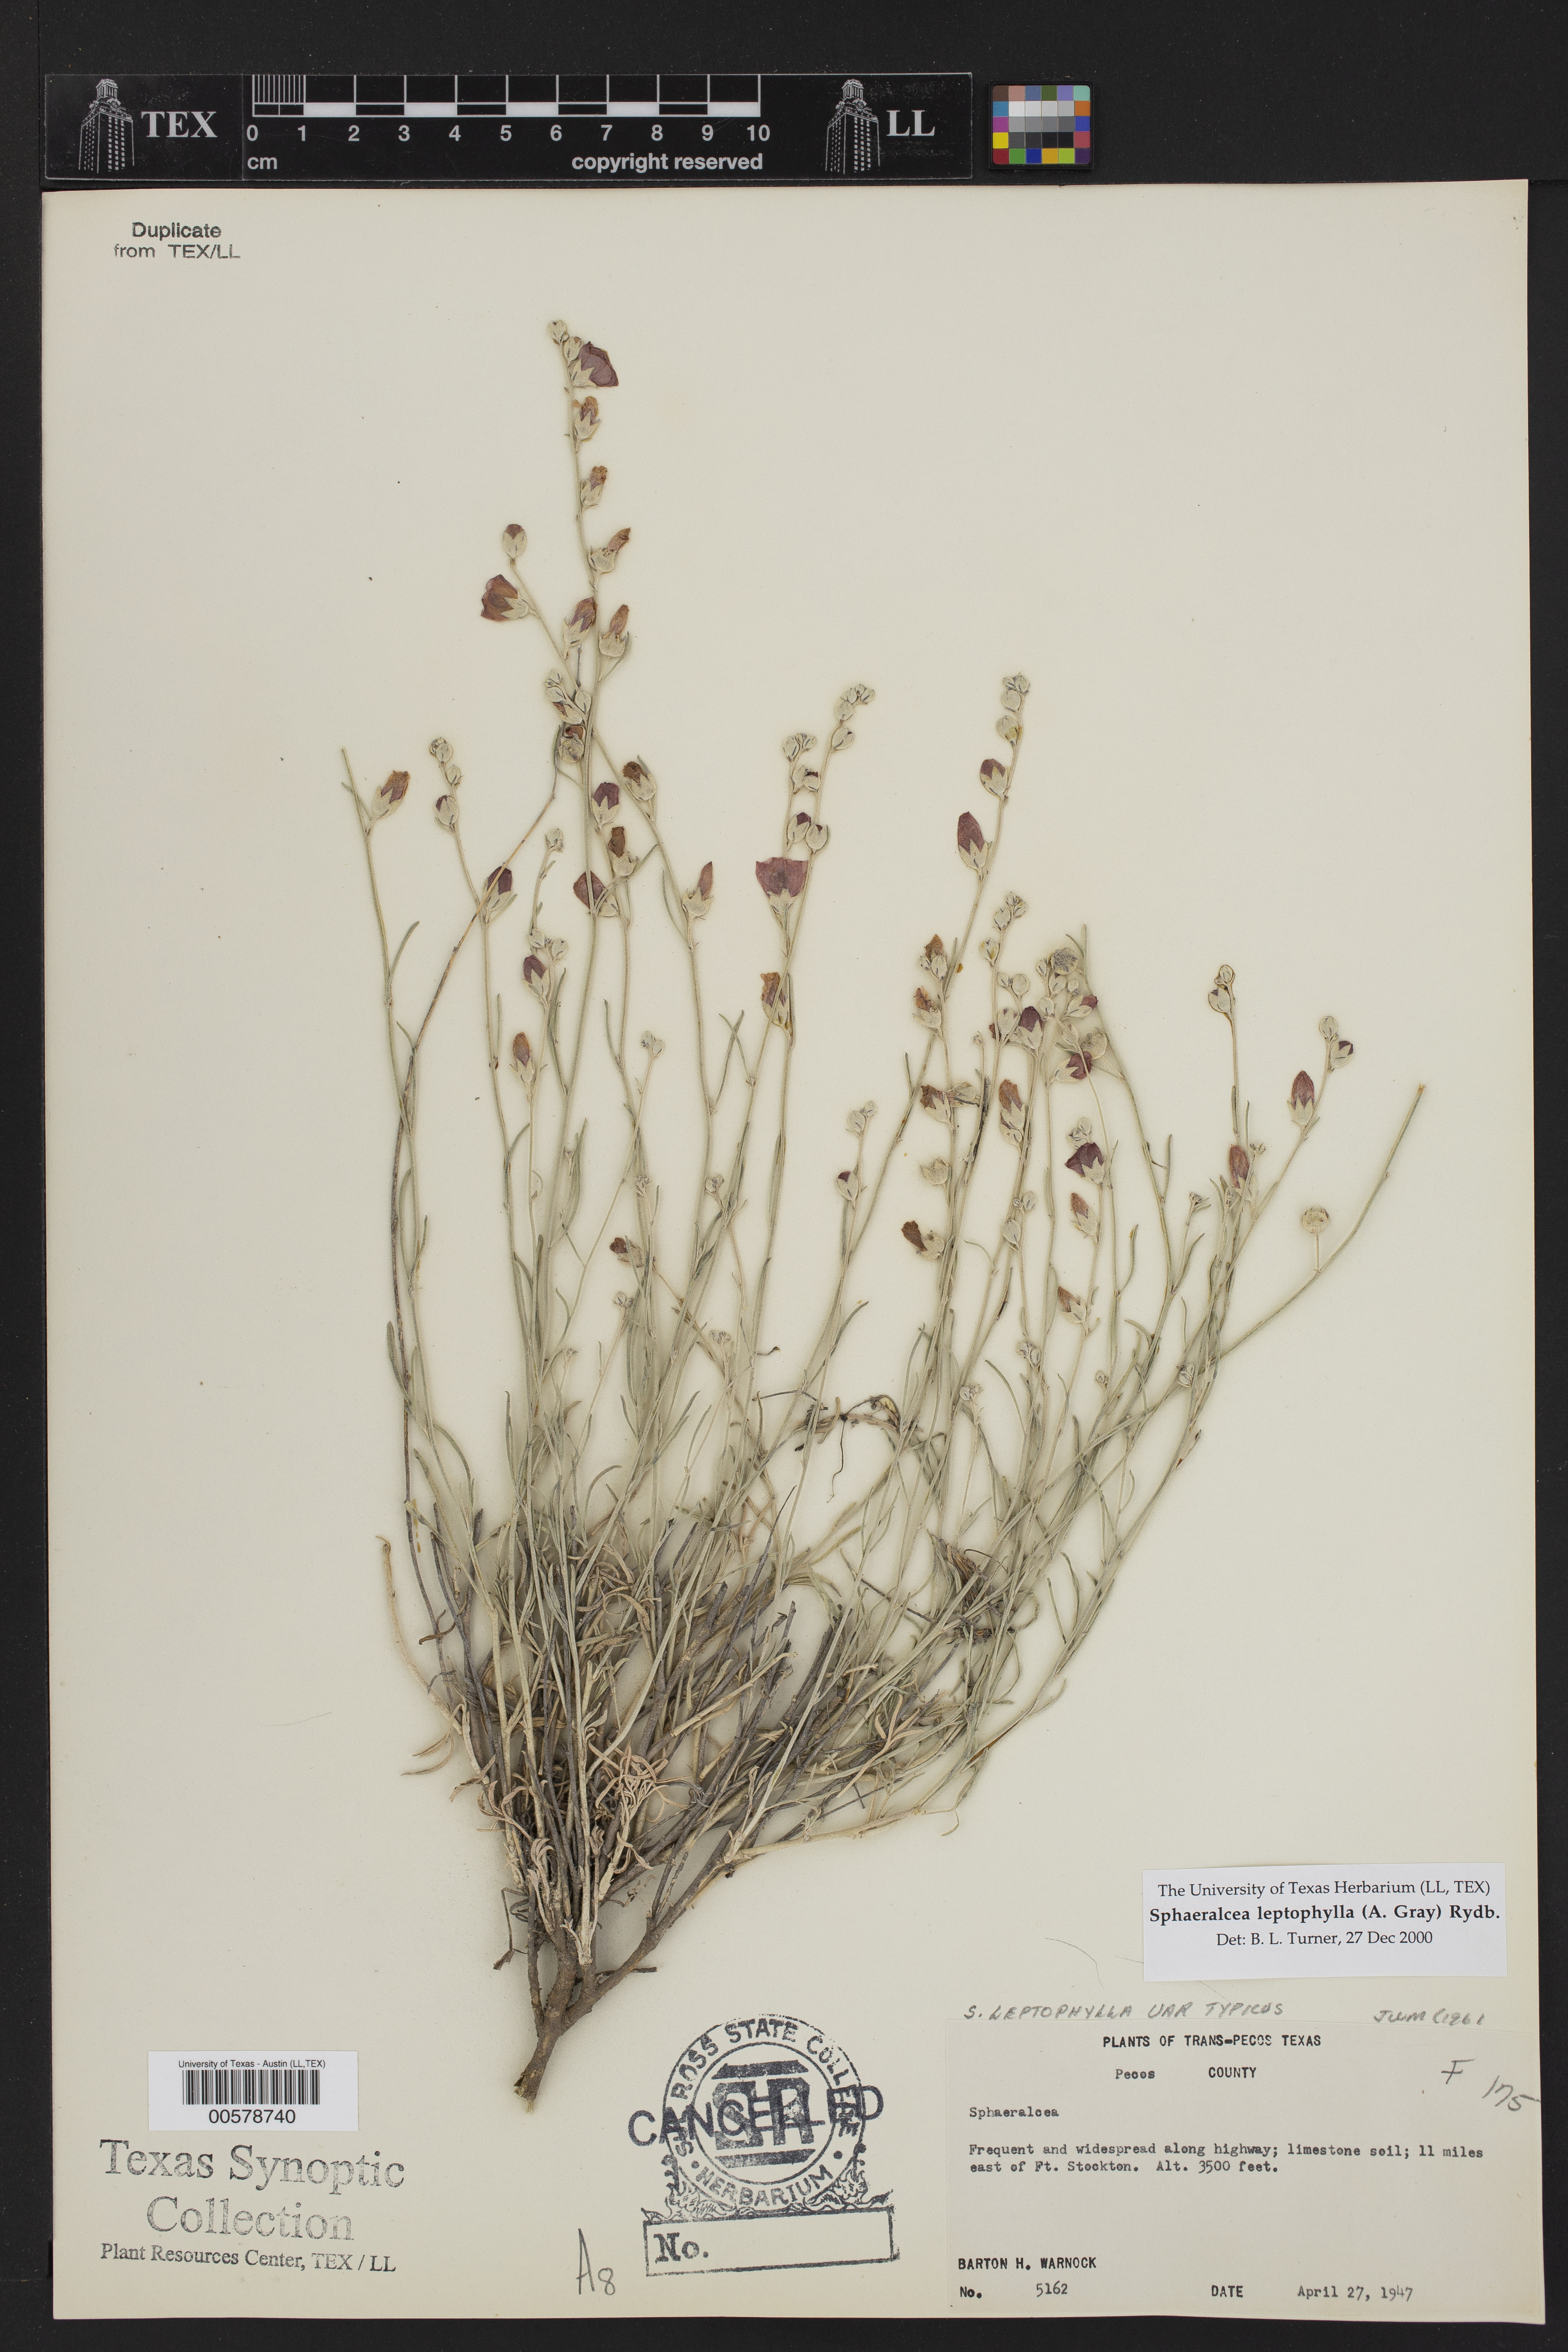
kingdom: Plantae
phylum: Tracheophyta
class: Magnoliopsida
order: Malvales
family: Malvaceae
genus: Sphaeralcea
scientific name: Sphaeralcea leptophylla
